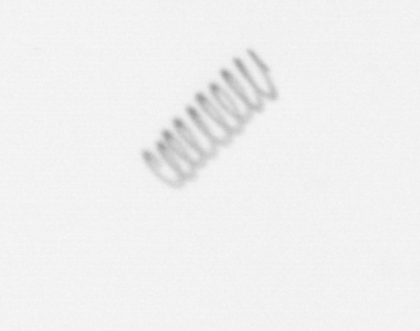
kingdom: Chromista
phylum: Ochrophyta
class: Bacillariophyceae
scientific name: Bacillariophyceae
